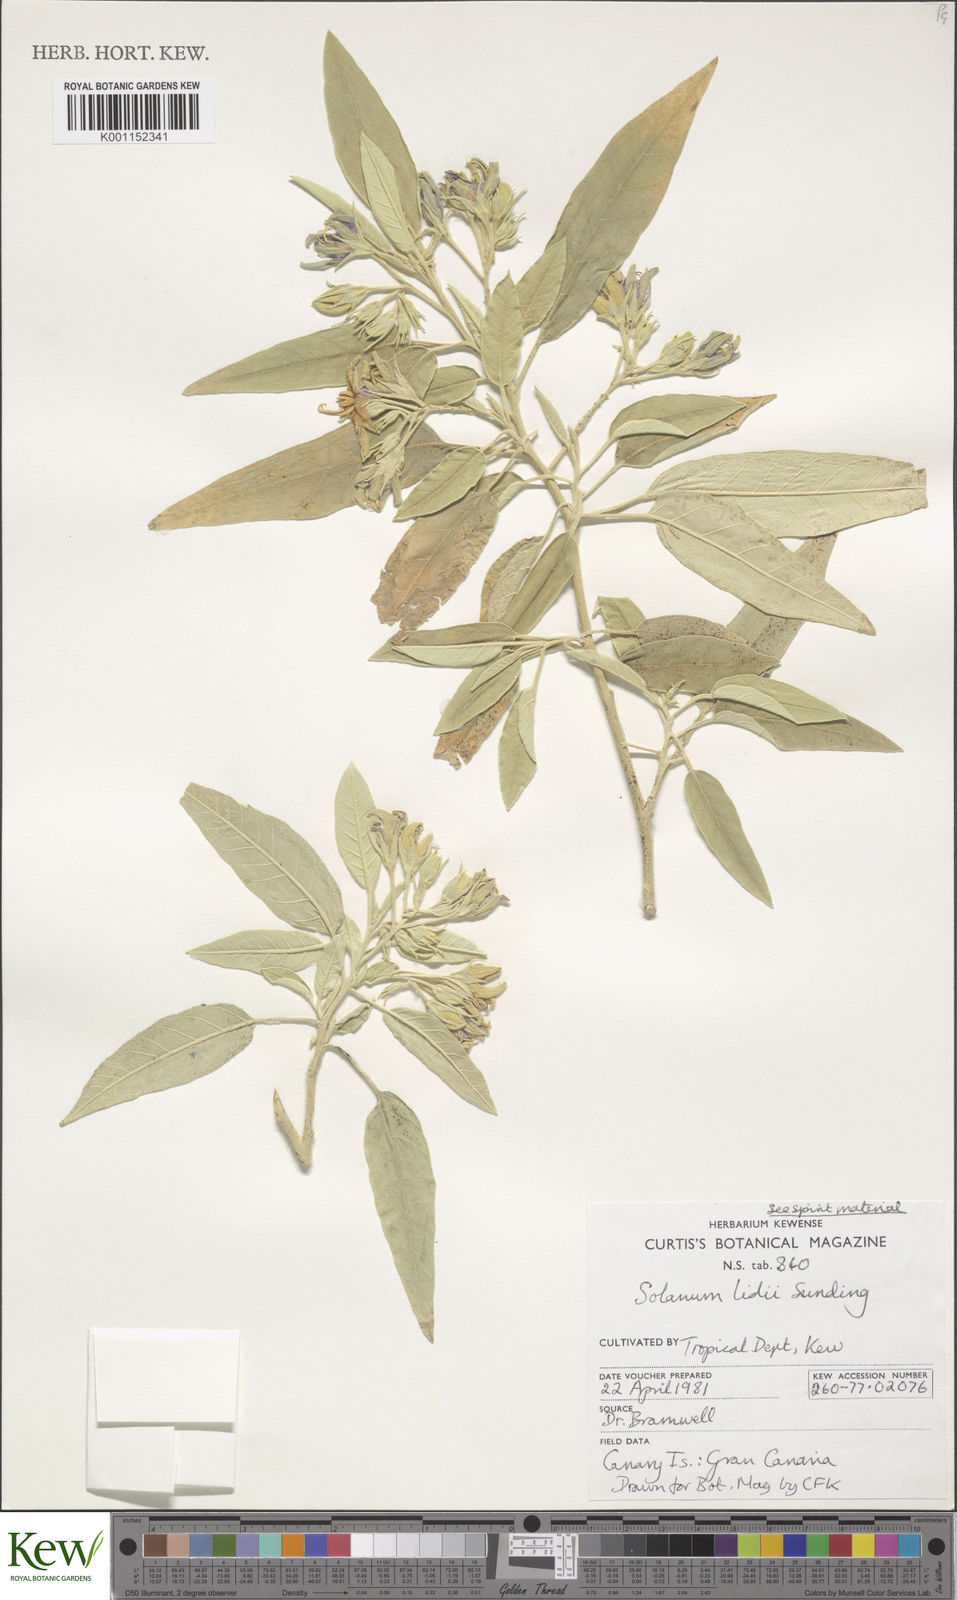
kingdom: Plantae
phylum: Tracheophyta
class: Magnoliopsida
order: Solanales
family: Solanaceae
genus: Solanum
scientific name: Solanum lidii
